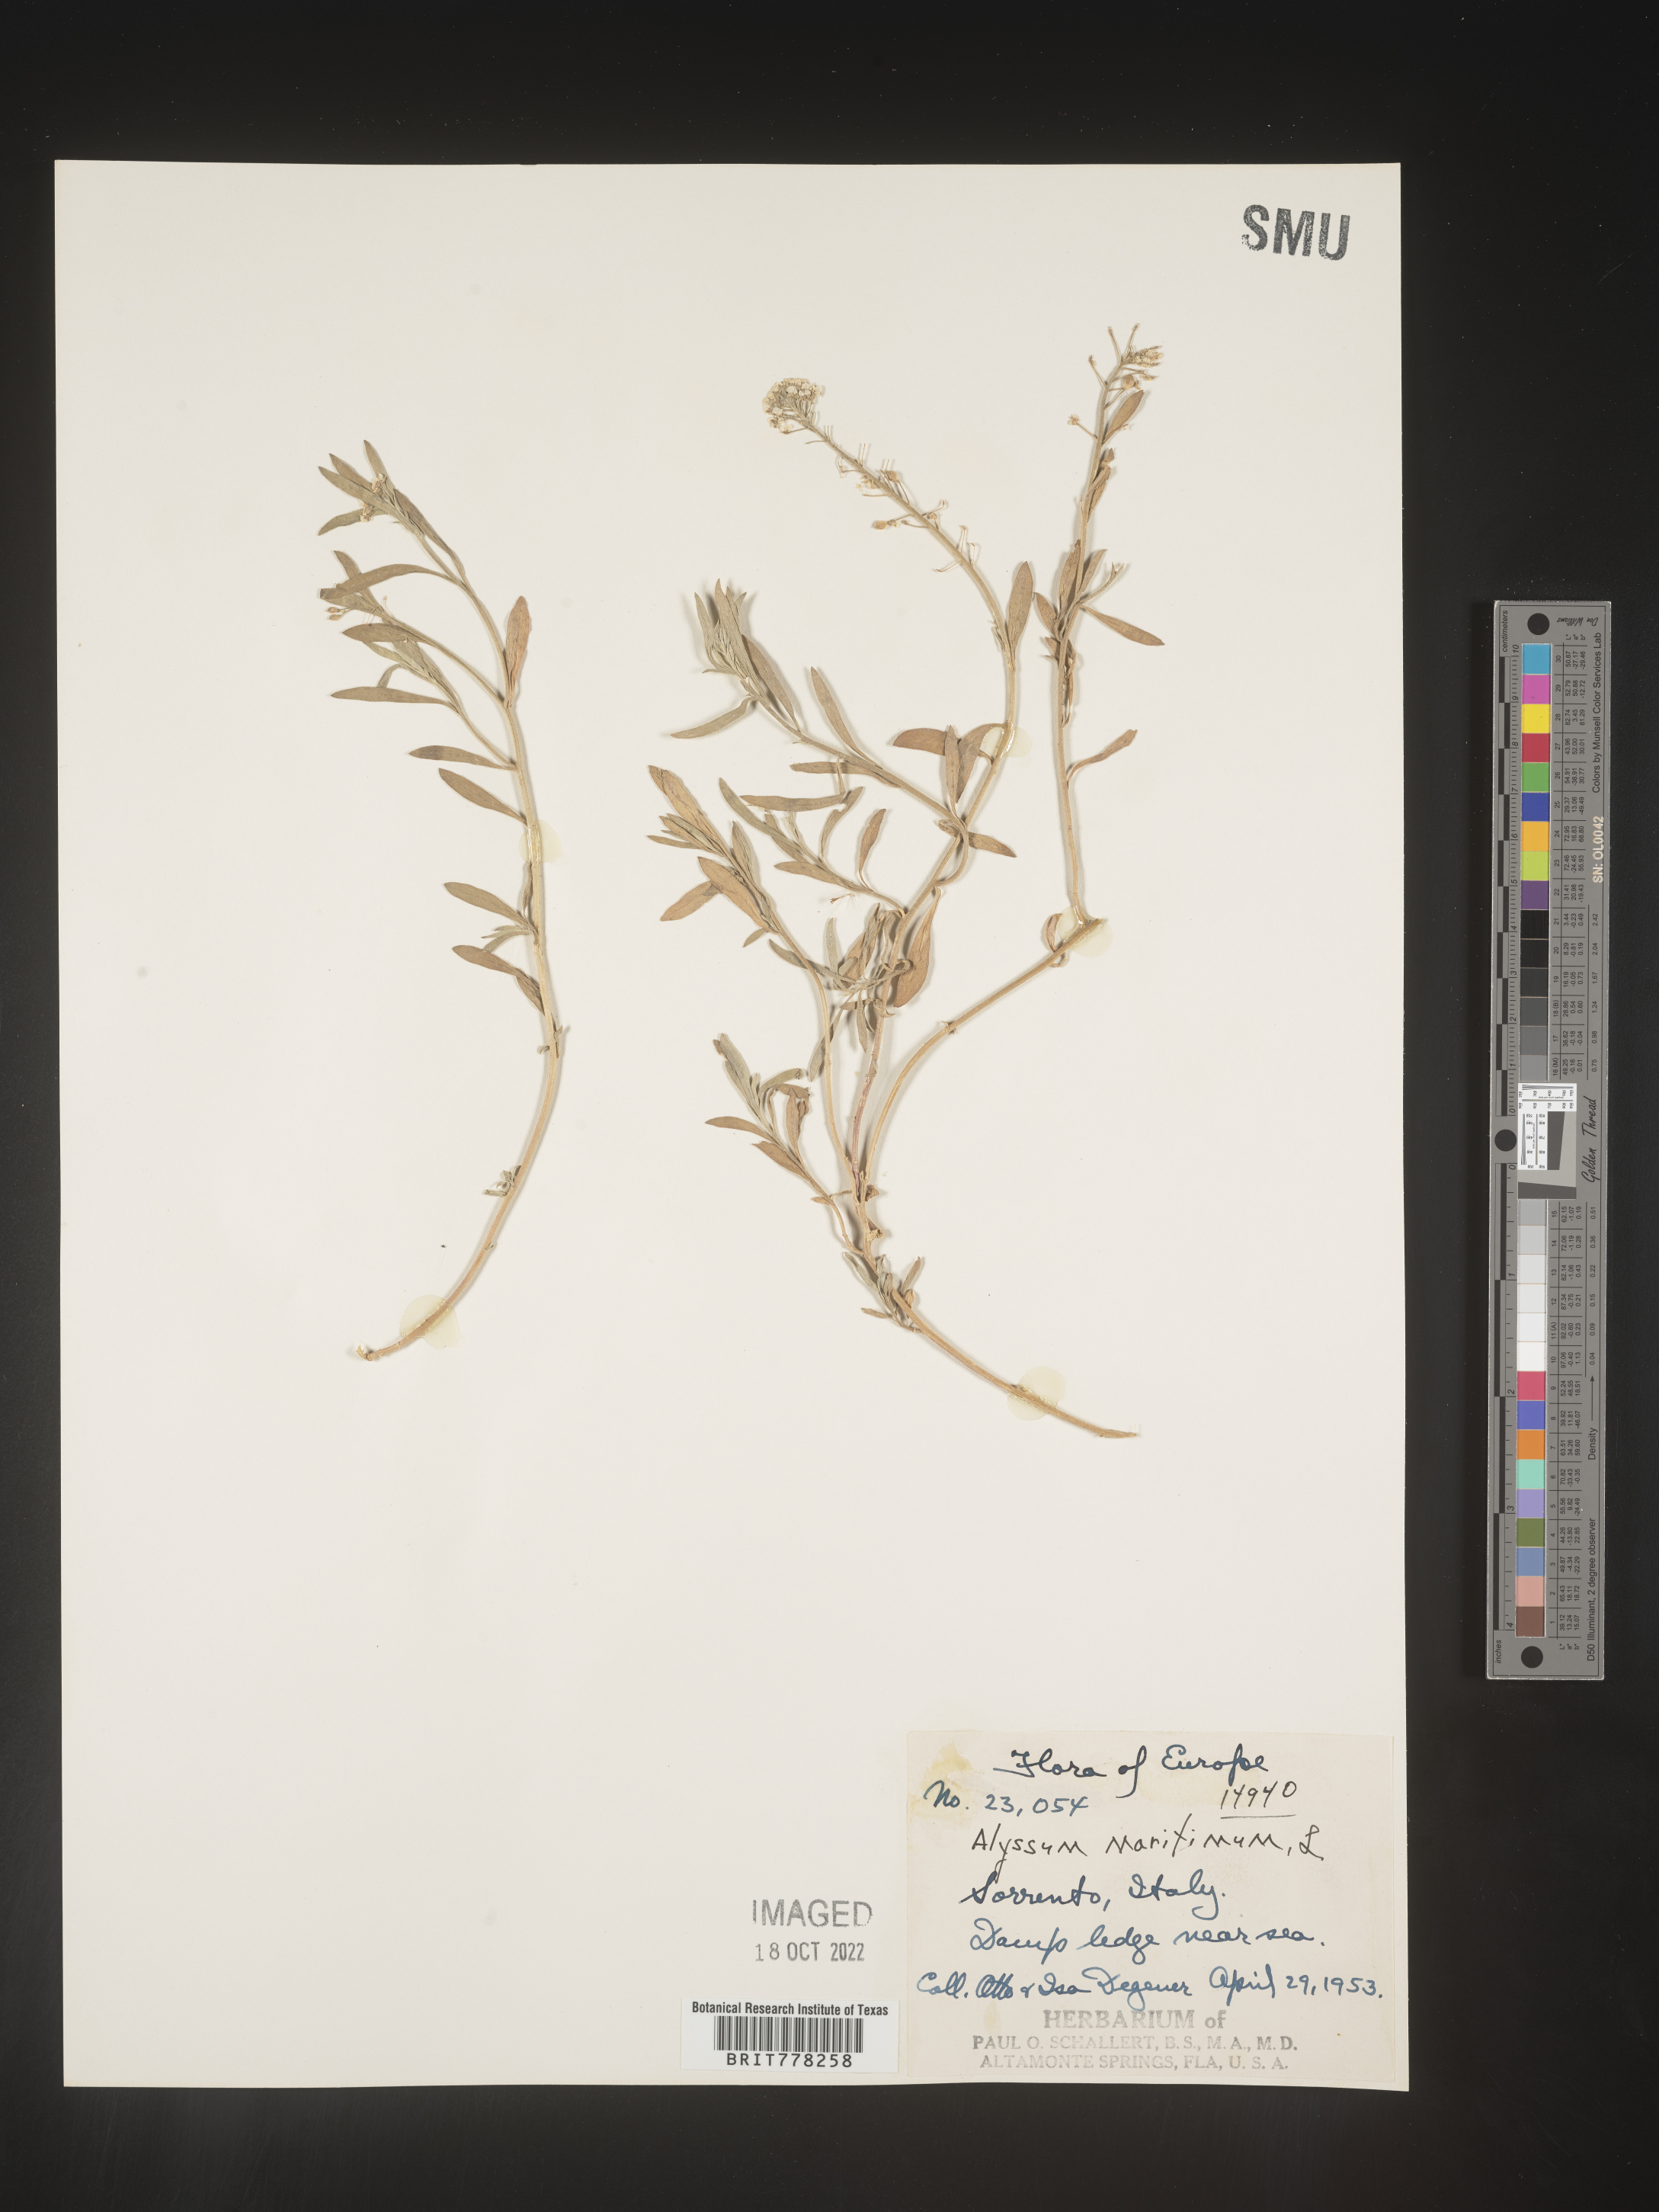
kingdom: Plantae
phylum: Tracheophyta
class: Magnoliopsida
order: Brassicales
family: Brassicaceae
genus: Lobularia
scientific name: Lobularia
